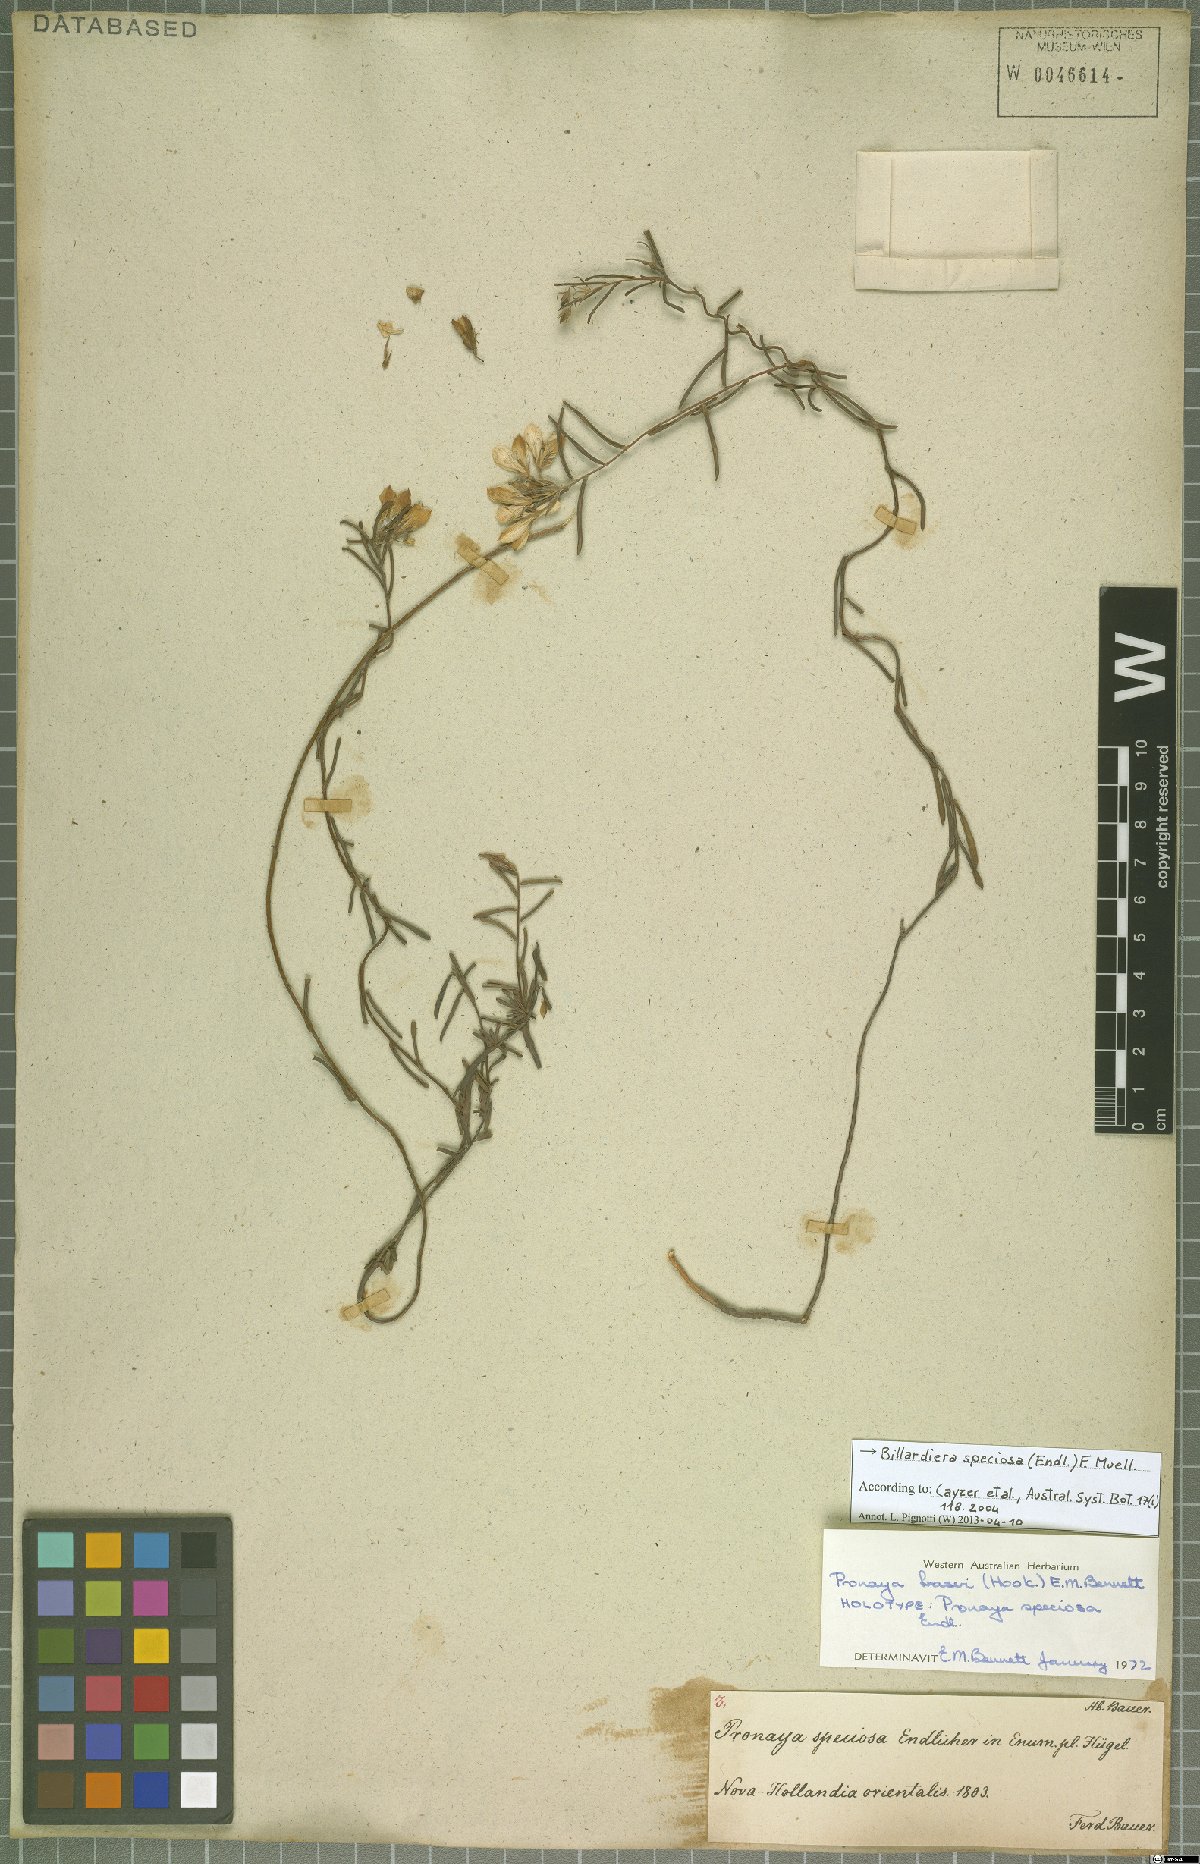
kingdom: Plantae
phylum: Tracheophyta
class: Magnoliopsida
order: Apiales
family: Pittosporaceae
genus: Billardiera
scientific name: Billardiera speciosa
